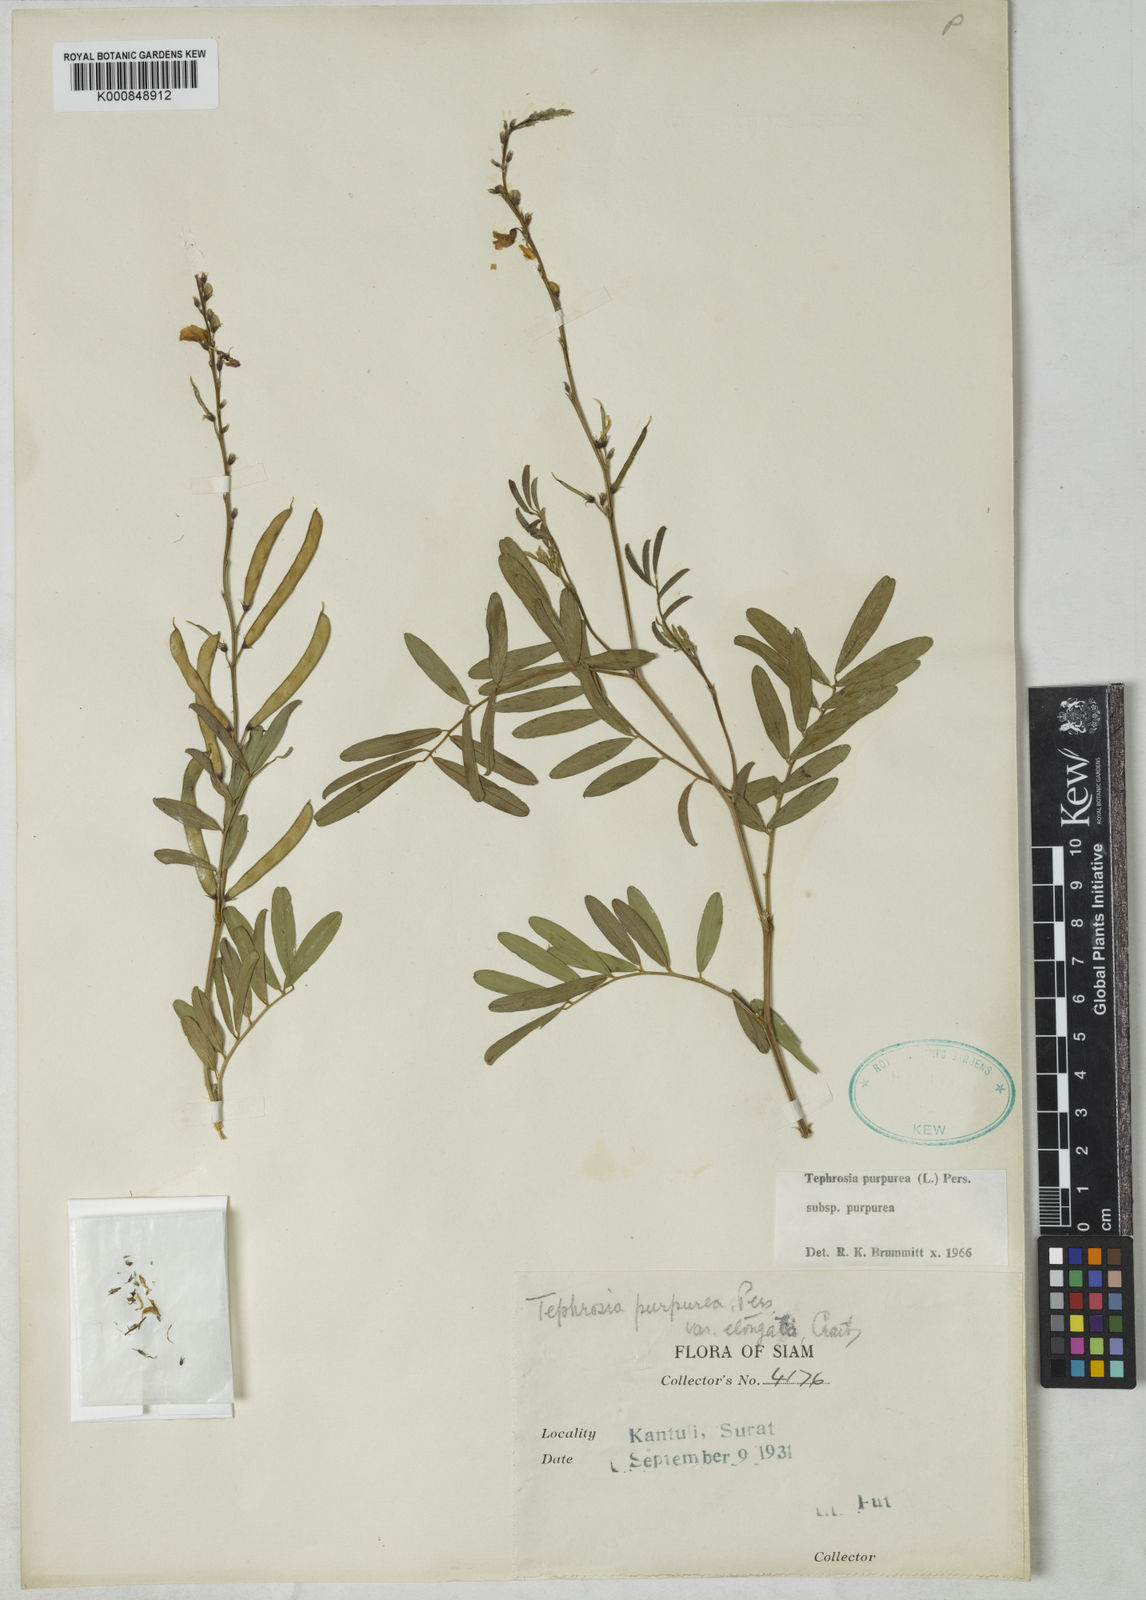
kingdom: Plantae
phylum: Tracheophyta
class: Magnoliopsida
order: Fabales
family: Fabaceae
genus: Tephrosia
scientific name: Tephrosia purpurea
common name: Fishpoison
